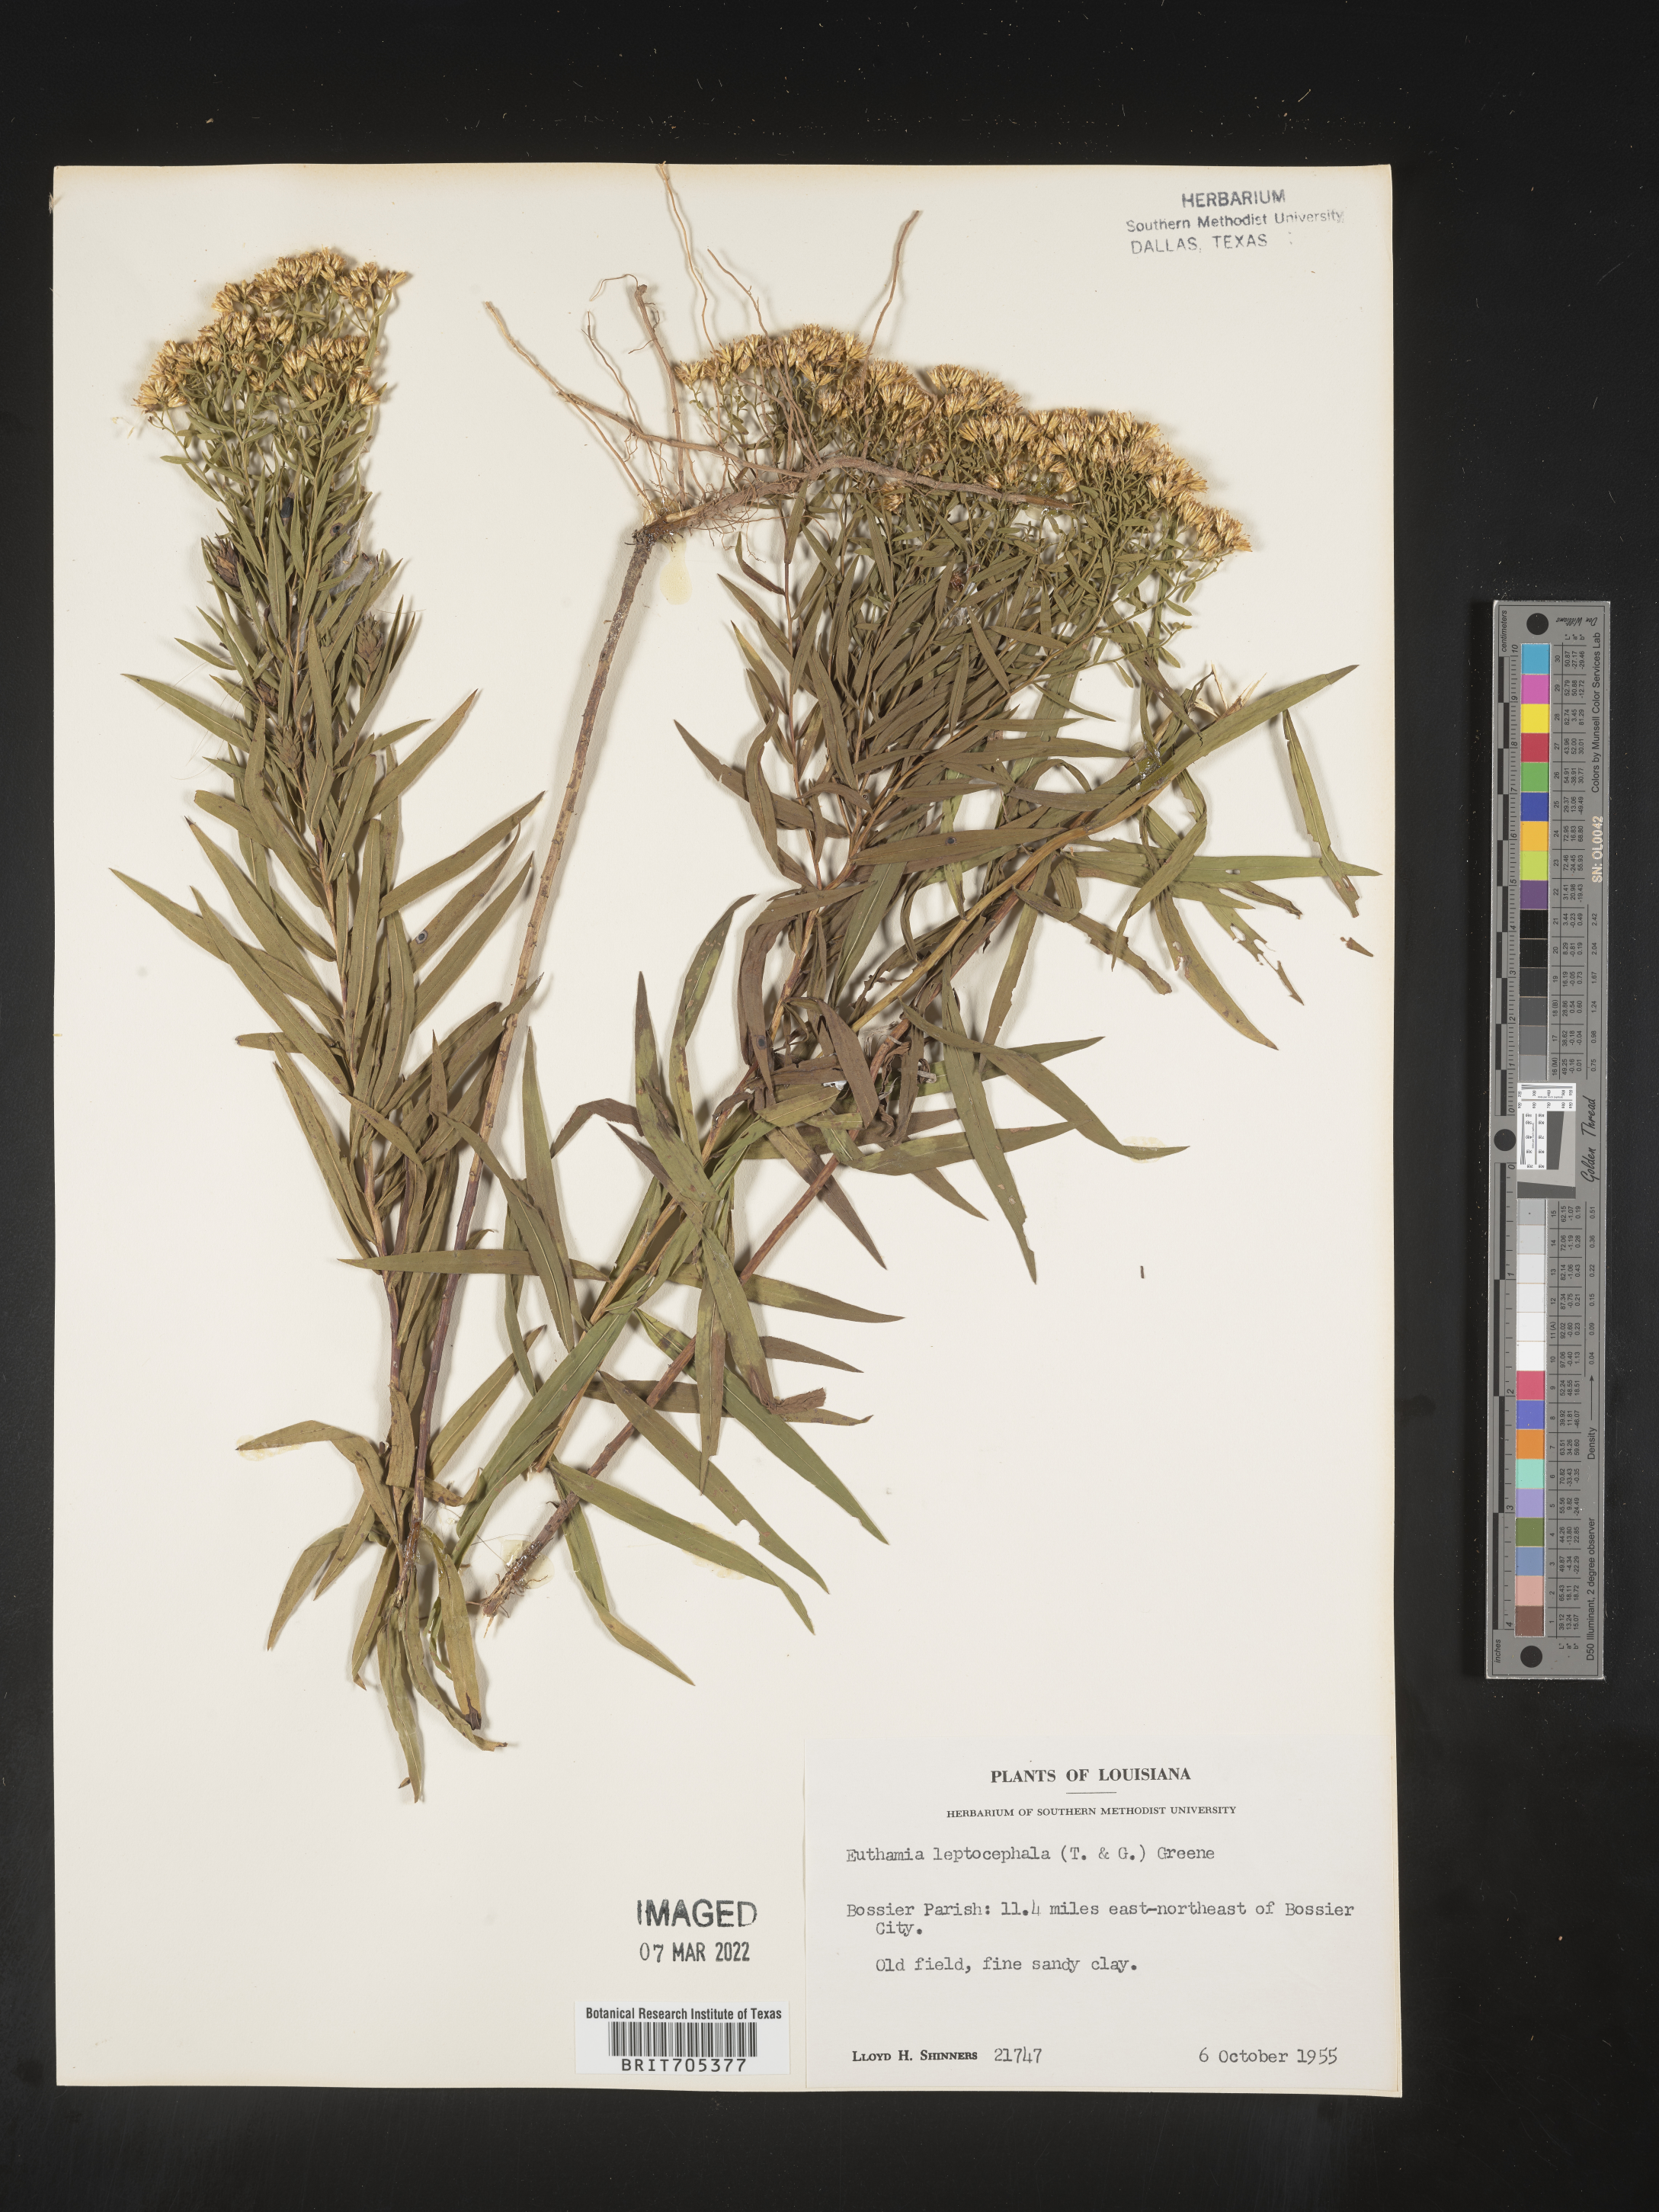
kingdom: Plantae
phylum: Tracheophyta
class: Magnoliopsida
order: Asterales
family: Asteraceae
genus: Euthamia
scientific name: Euthamia leptocephala
